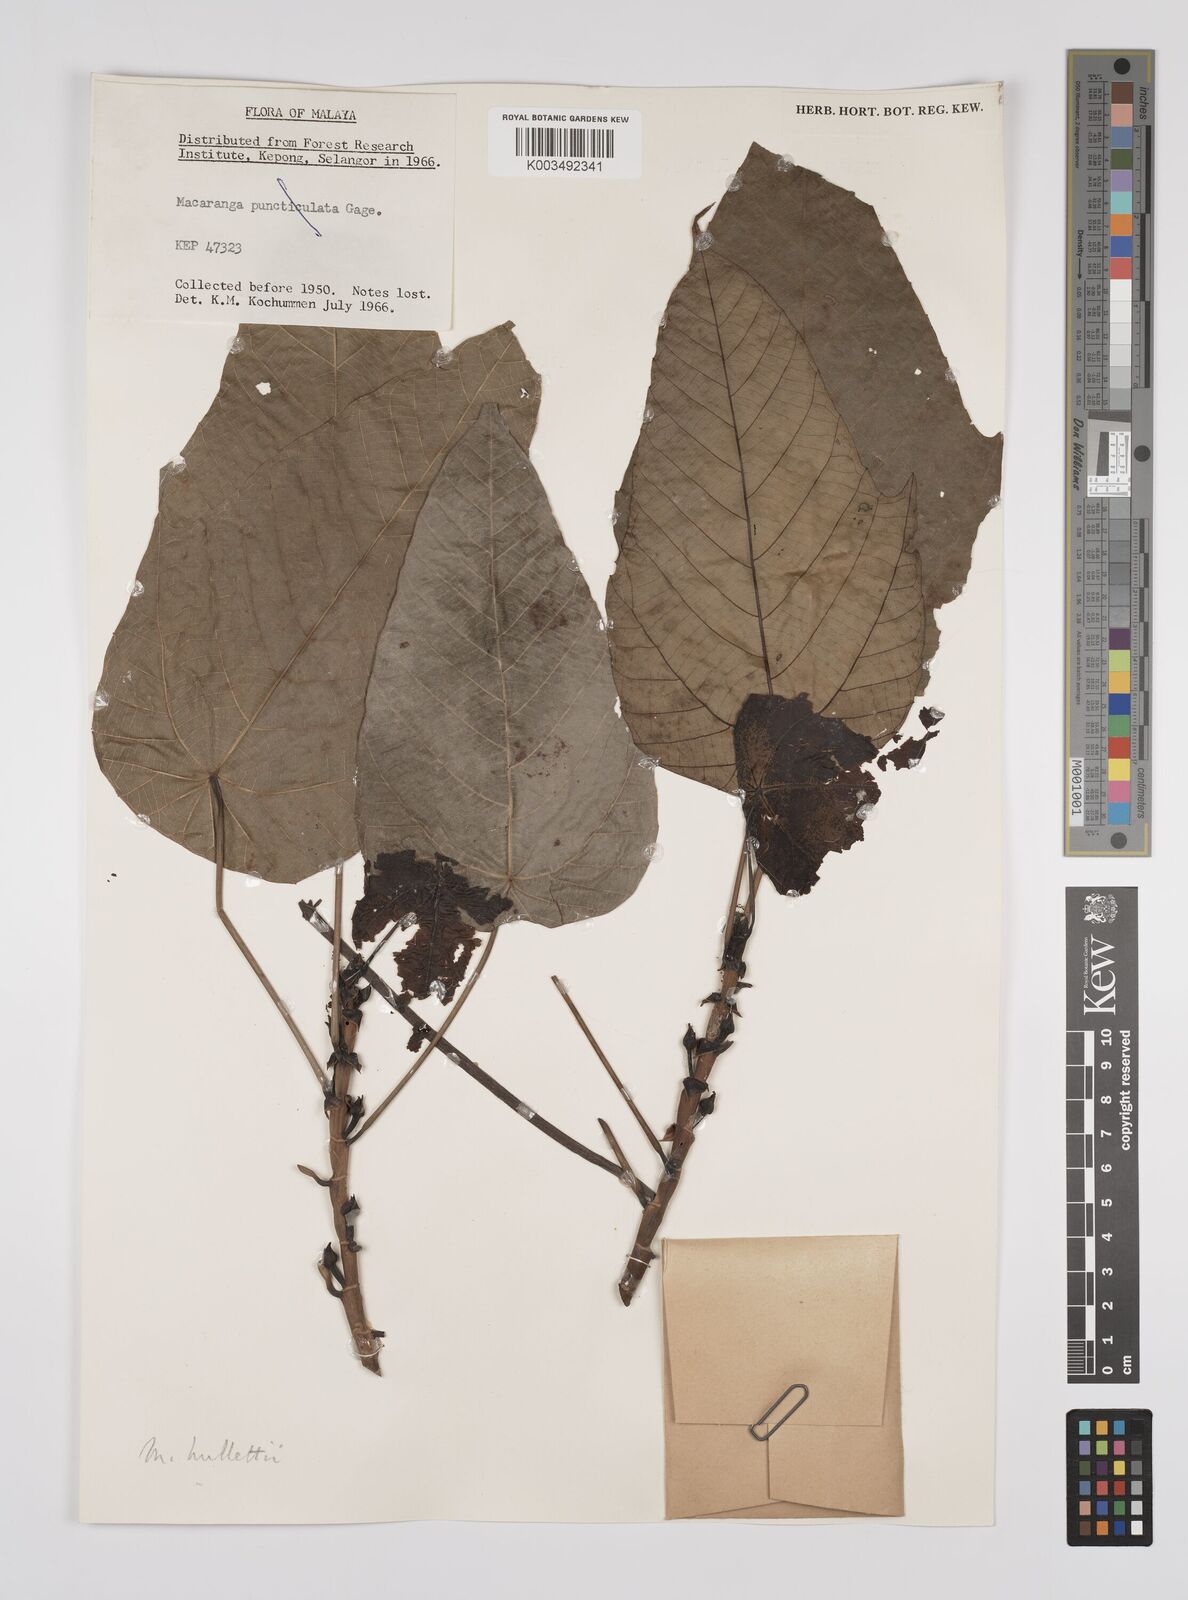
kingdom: Plantae
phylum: Tracheophyta
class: Magnoliopsida
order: Malpighiales
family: Euphorbiaceae
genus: Macaranga
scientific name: Macaranga hullettii
